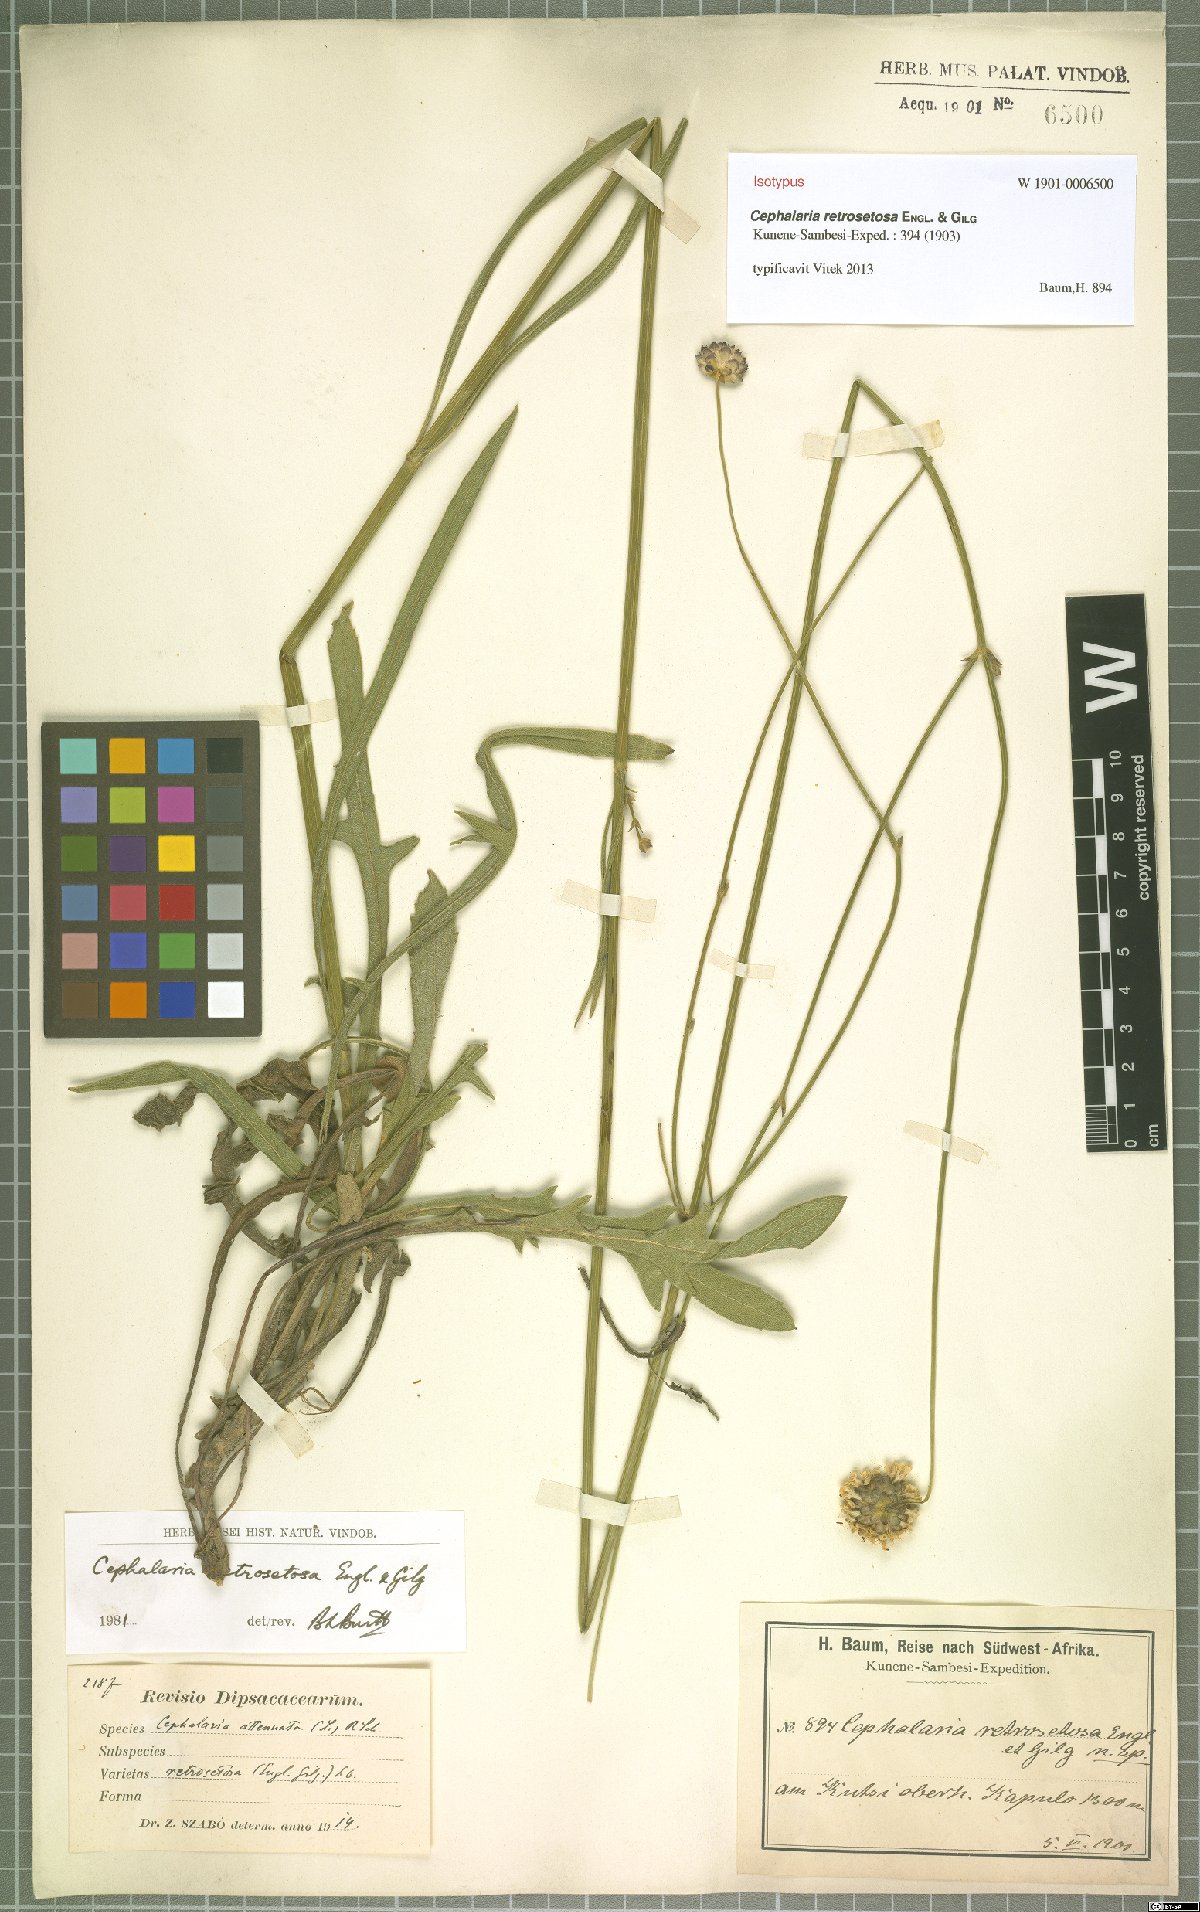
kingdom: Plantae
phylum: Tracheophyta
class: Magnoliopsida
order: Dipsacales
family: Caprifoliaceae
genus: Cephalaria
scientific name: Cephalaria retrosetosa
